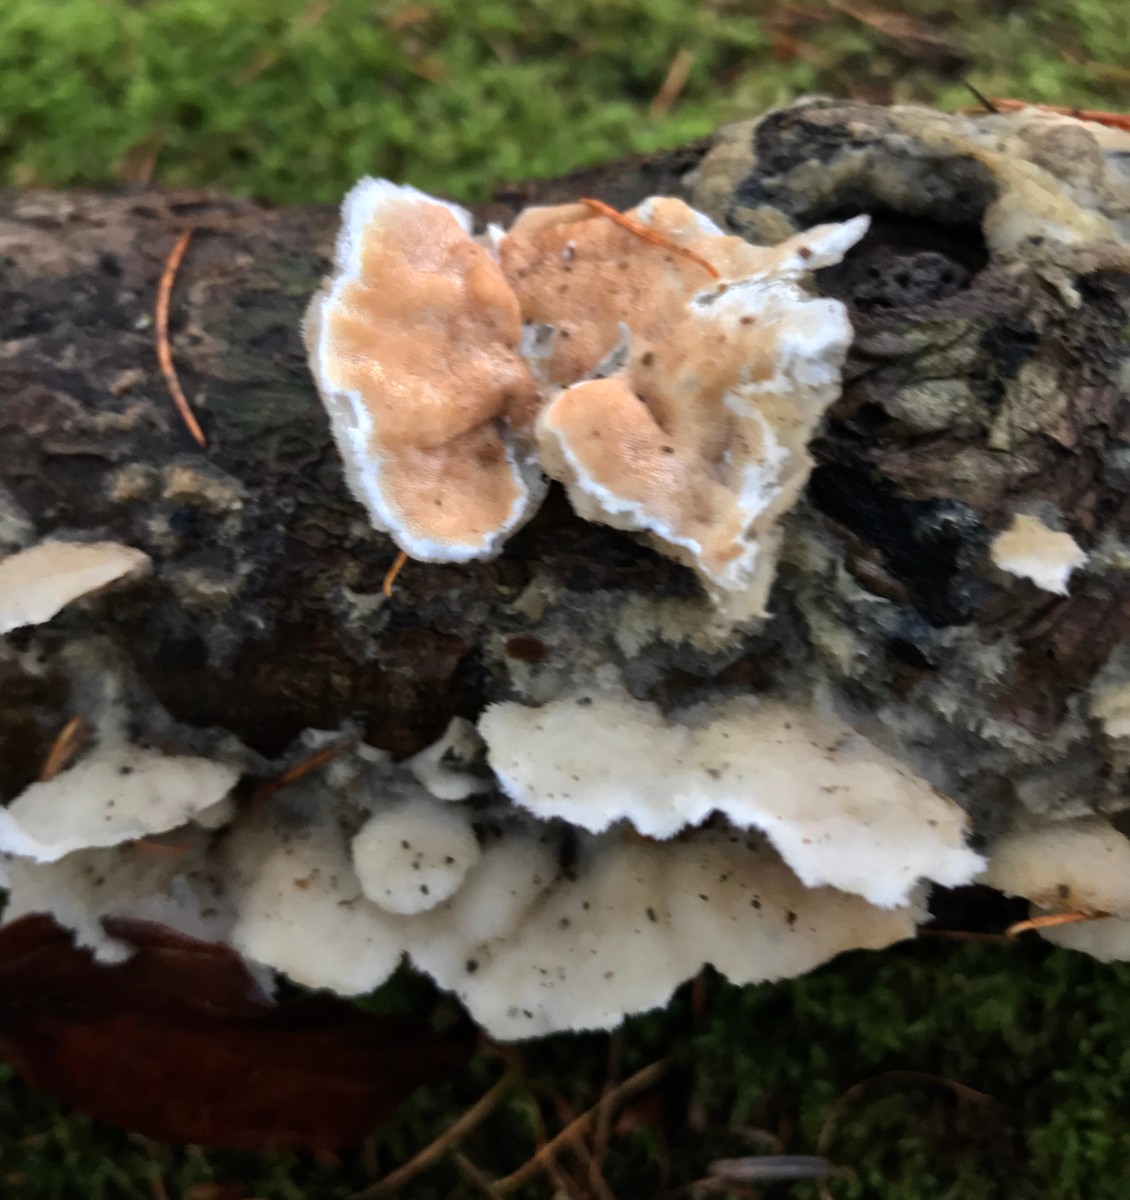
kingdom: Fungi
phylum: Basidiomycota
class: Agaricomycetes
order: Polyporales
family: Irpicaceae
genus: Vitreoporus
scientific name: Vitreoporus dichrous
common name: tofarvet foldporesvamp
